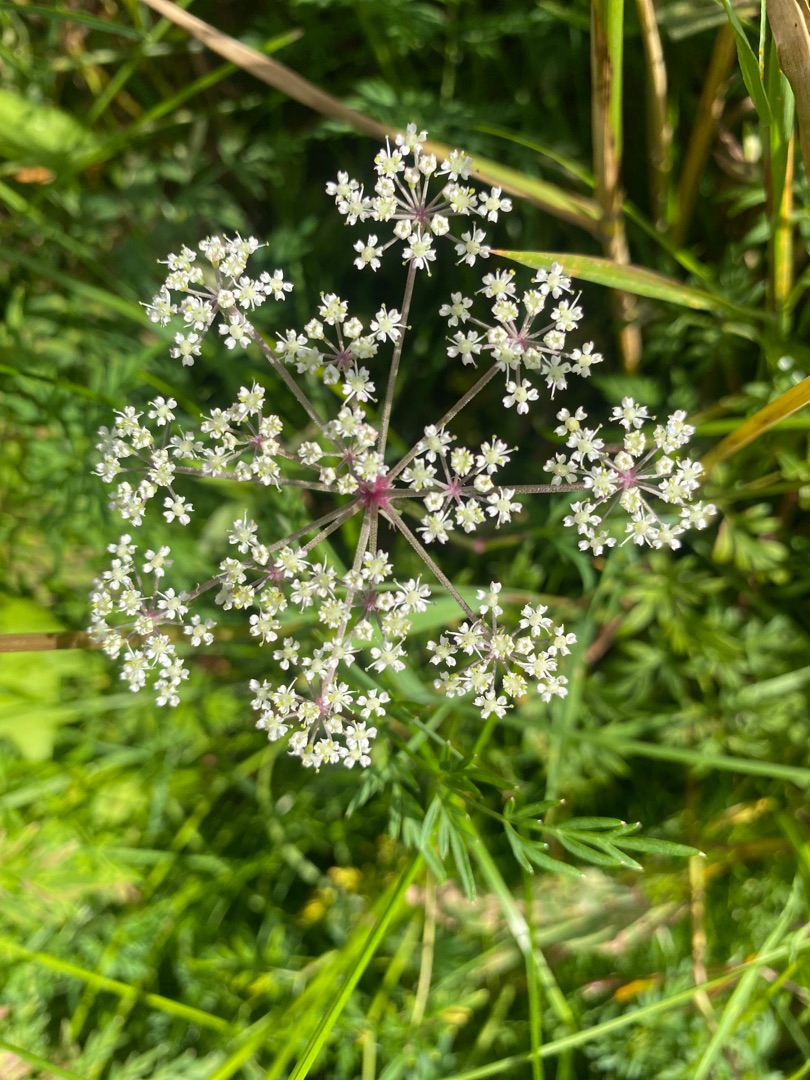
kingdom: Plantae
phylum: Tracheophyta
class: Magnoliopsida
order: Apiales
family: Apiaceae
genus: Thysselinum
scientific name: Thysselinum palustre
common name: Kær-svovlrod
